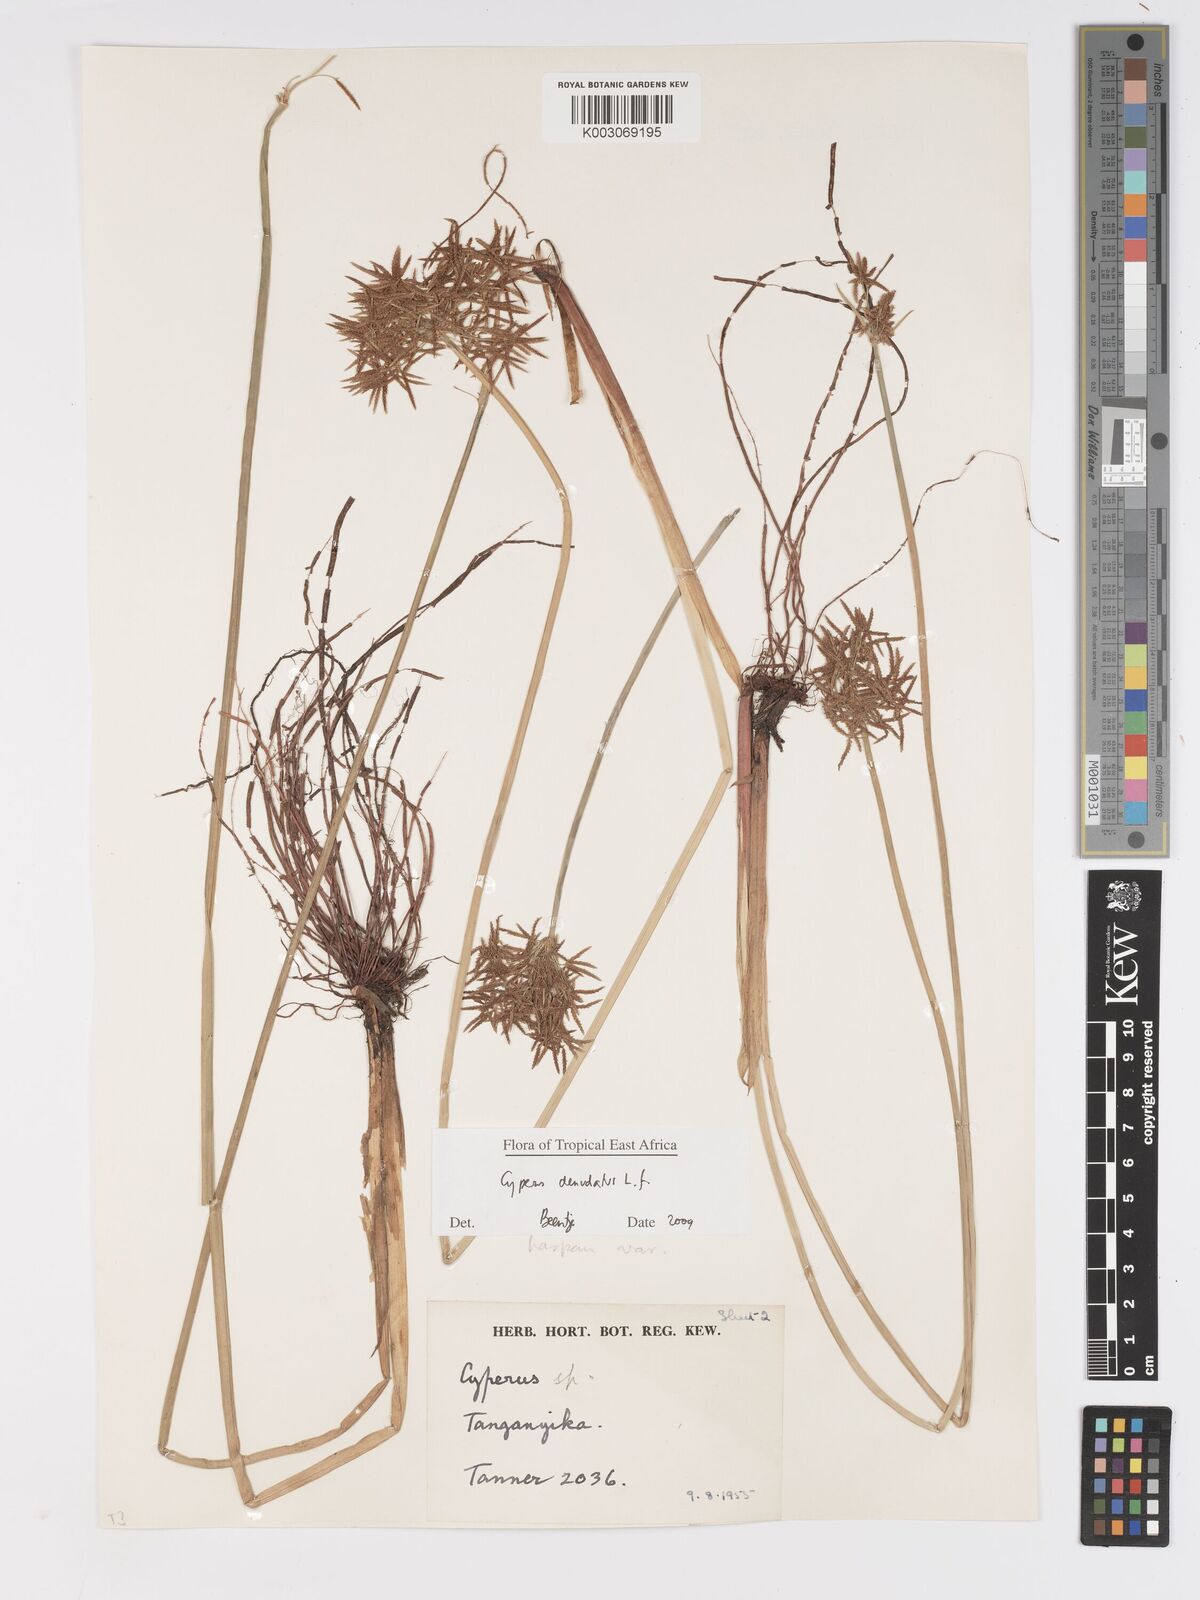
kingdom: Plantae
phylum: Tracheophyta
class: Liliopsida
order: Poales
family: Cyperaceae
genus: Cyperus
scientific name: Cyperus denudatus
